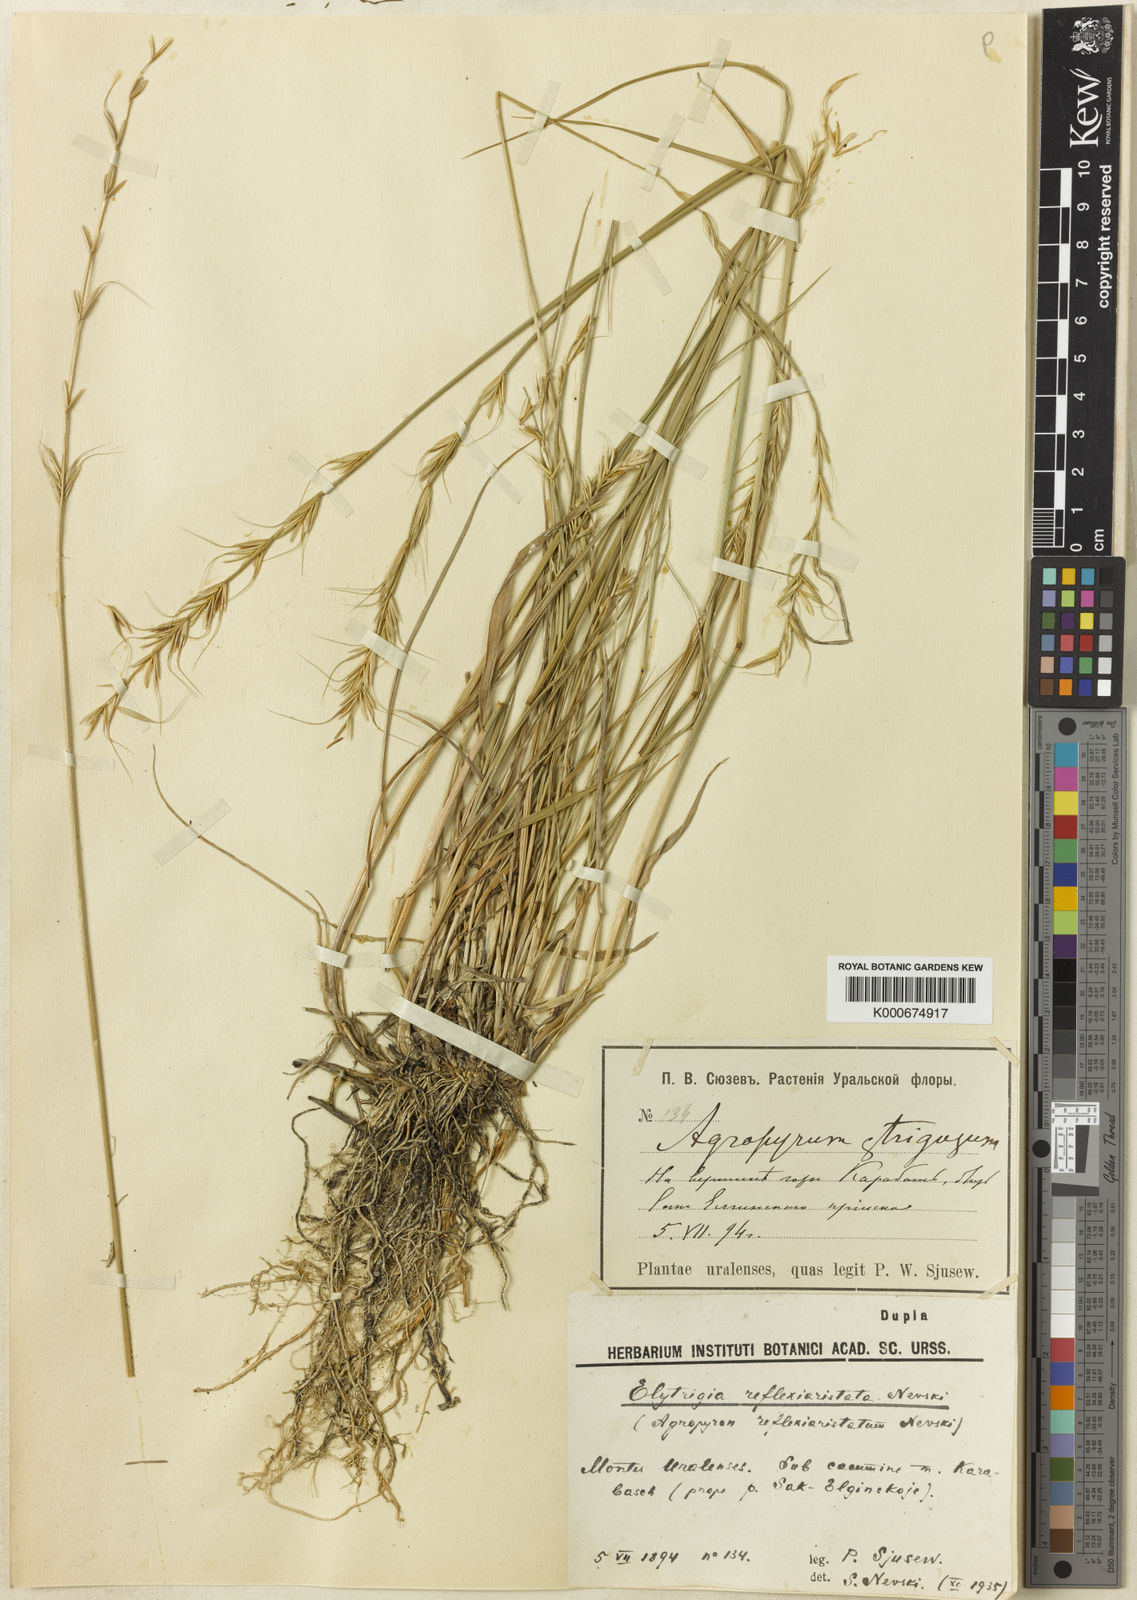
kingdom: Plantae
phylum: Tracheophyta
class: Liliopsida
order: Poales
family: Poaceae
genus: Leymus
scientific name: Leymus salina
